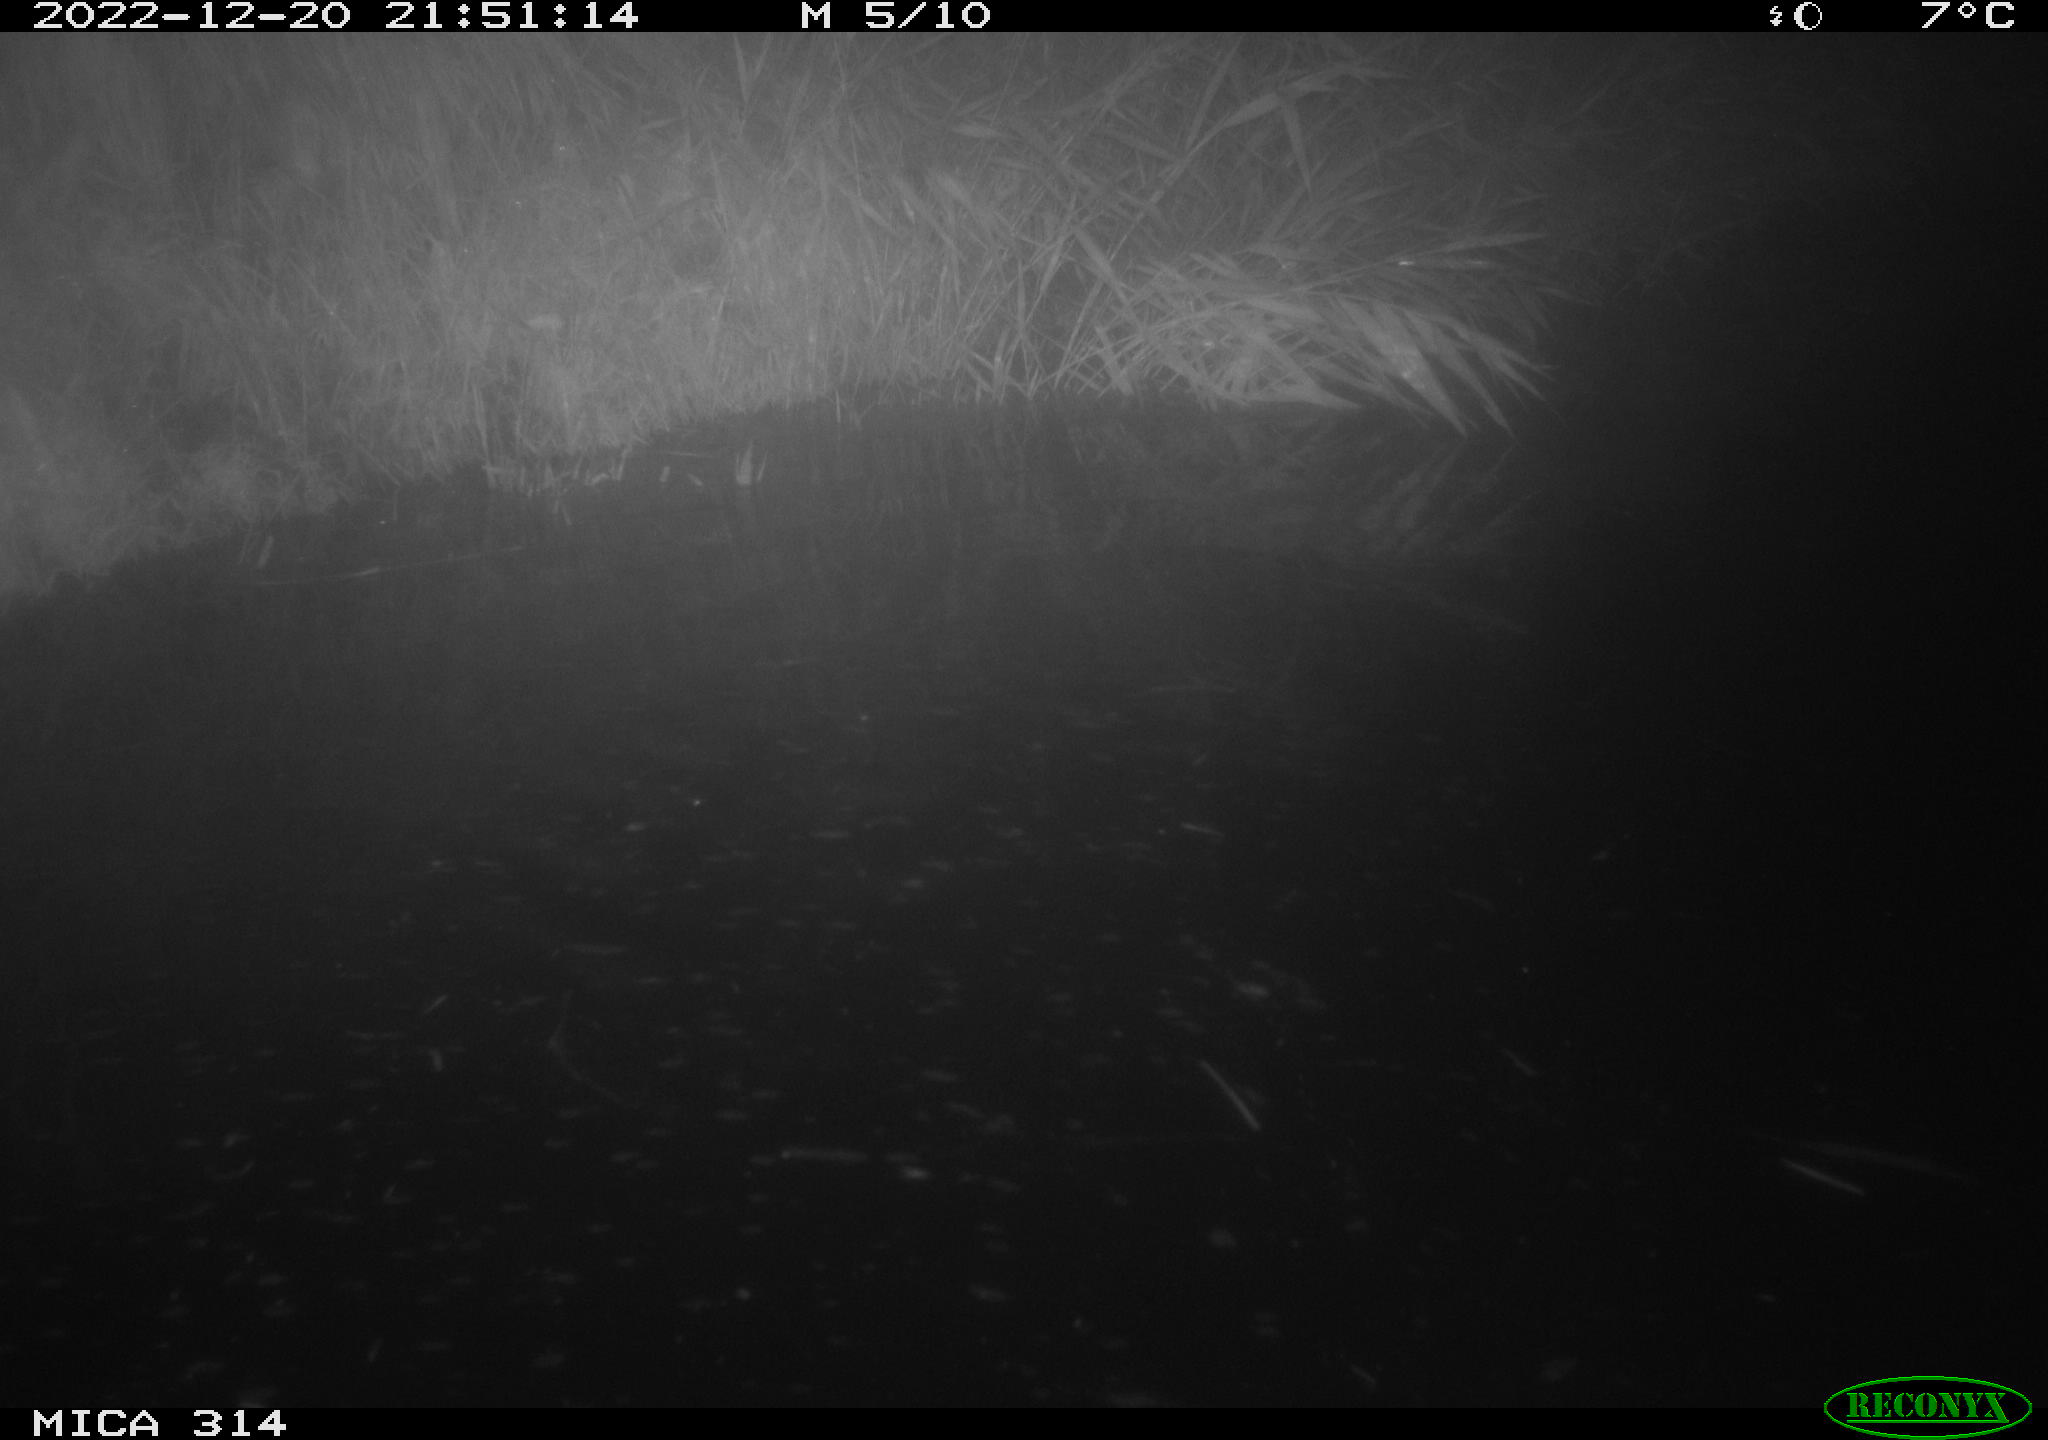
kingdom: Animalia
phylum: Chordata
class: Mammalia
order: Rodentia
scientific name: Rodentia
